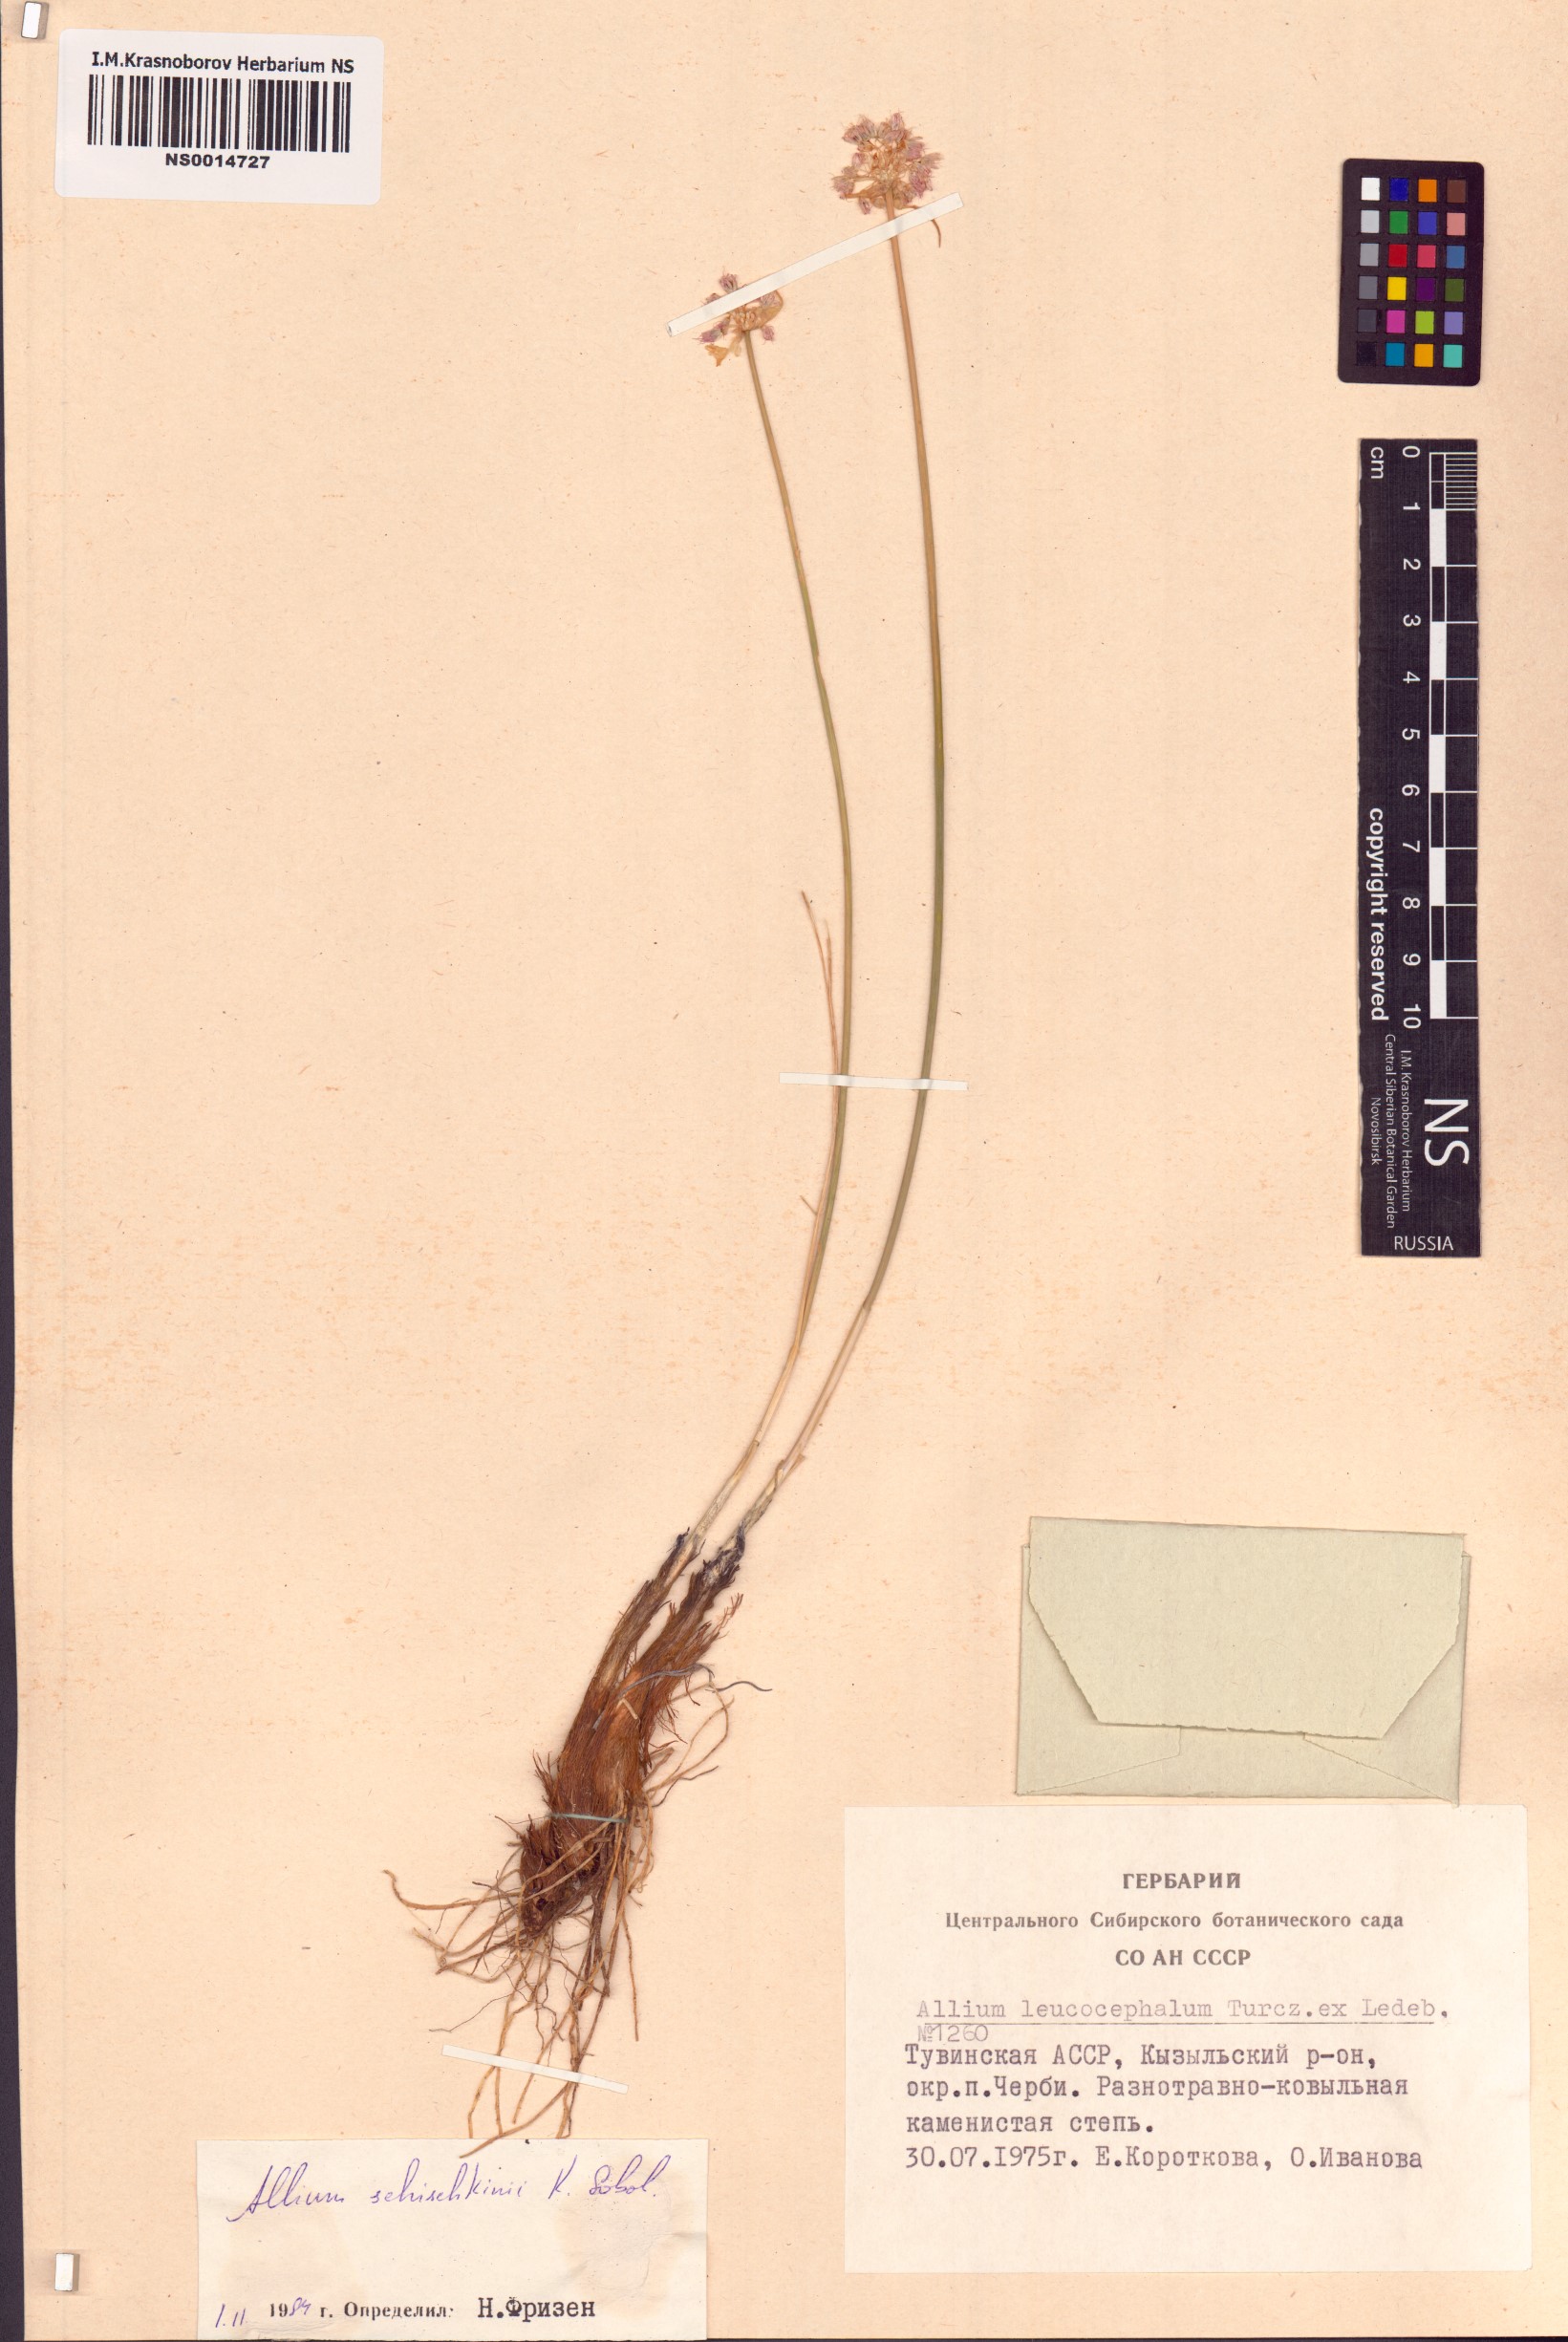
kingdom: Plantae
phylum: Tracheophyta
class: Liliopsida
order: Asparagales
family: Amaryllidaceae
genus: Allium
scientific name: Allium schischkinii
